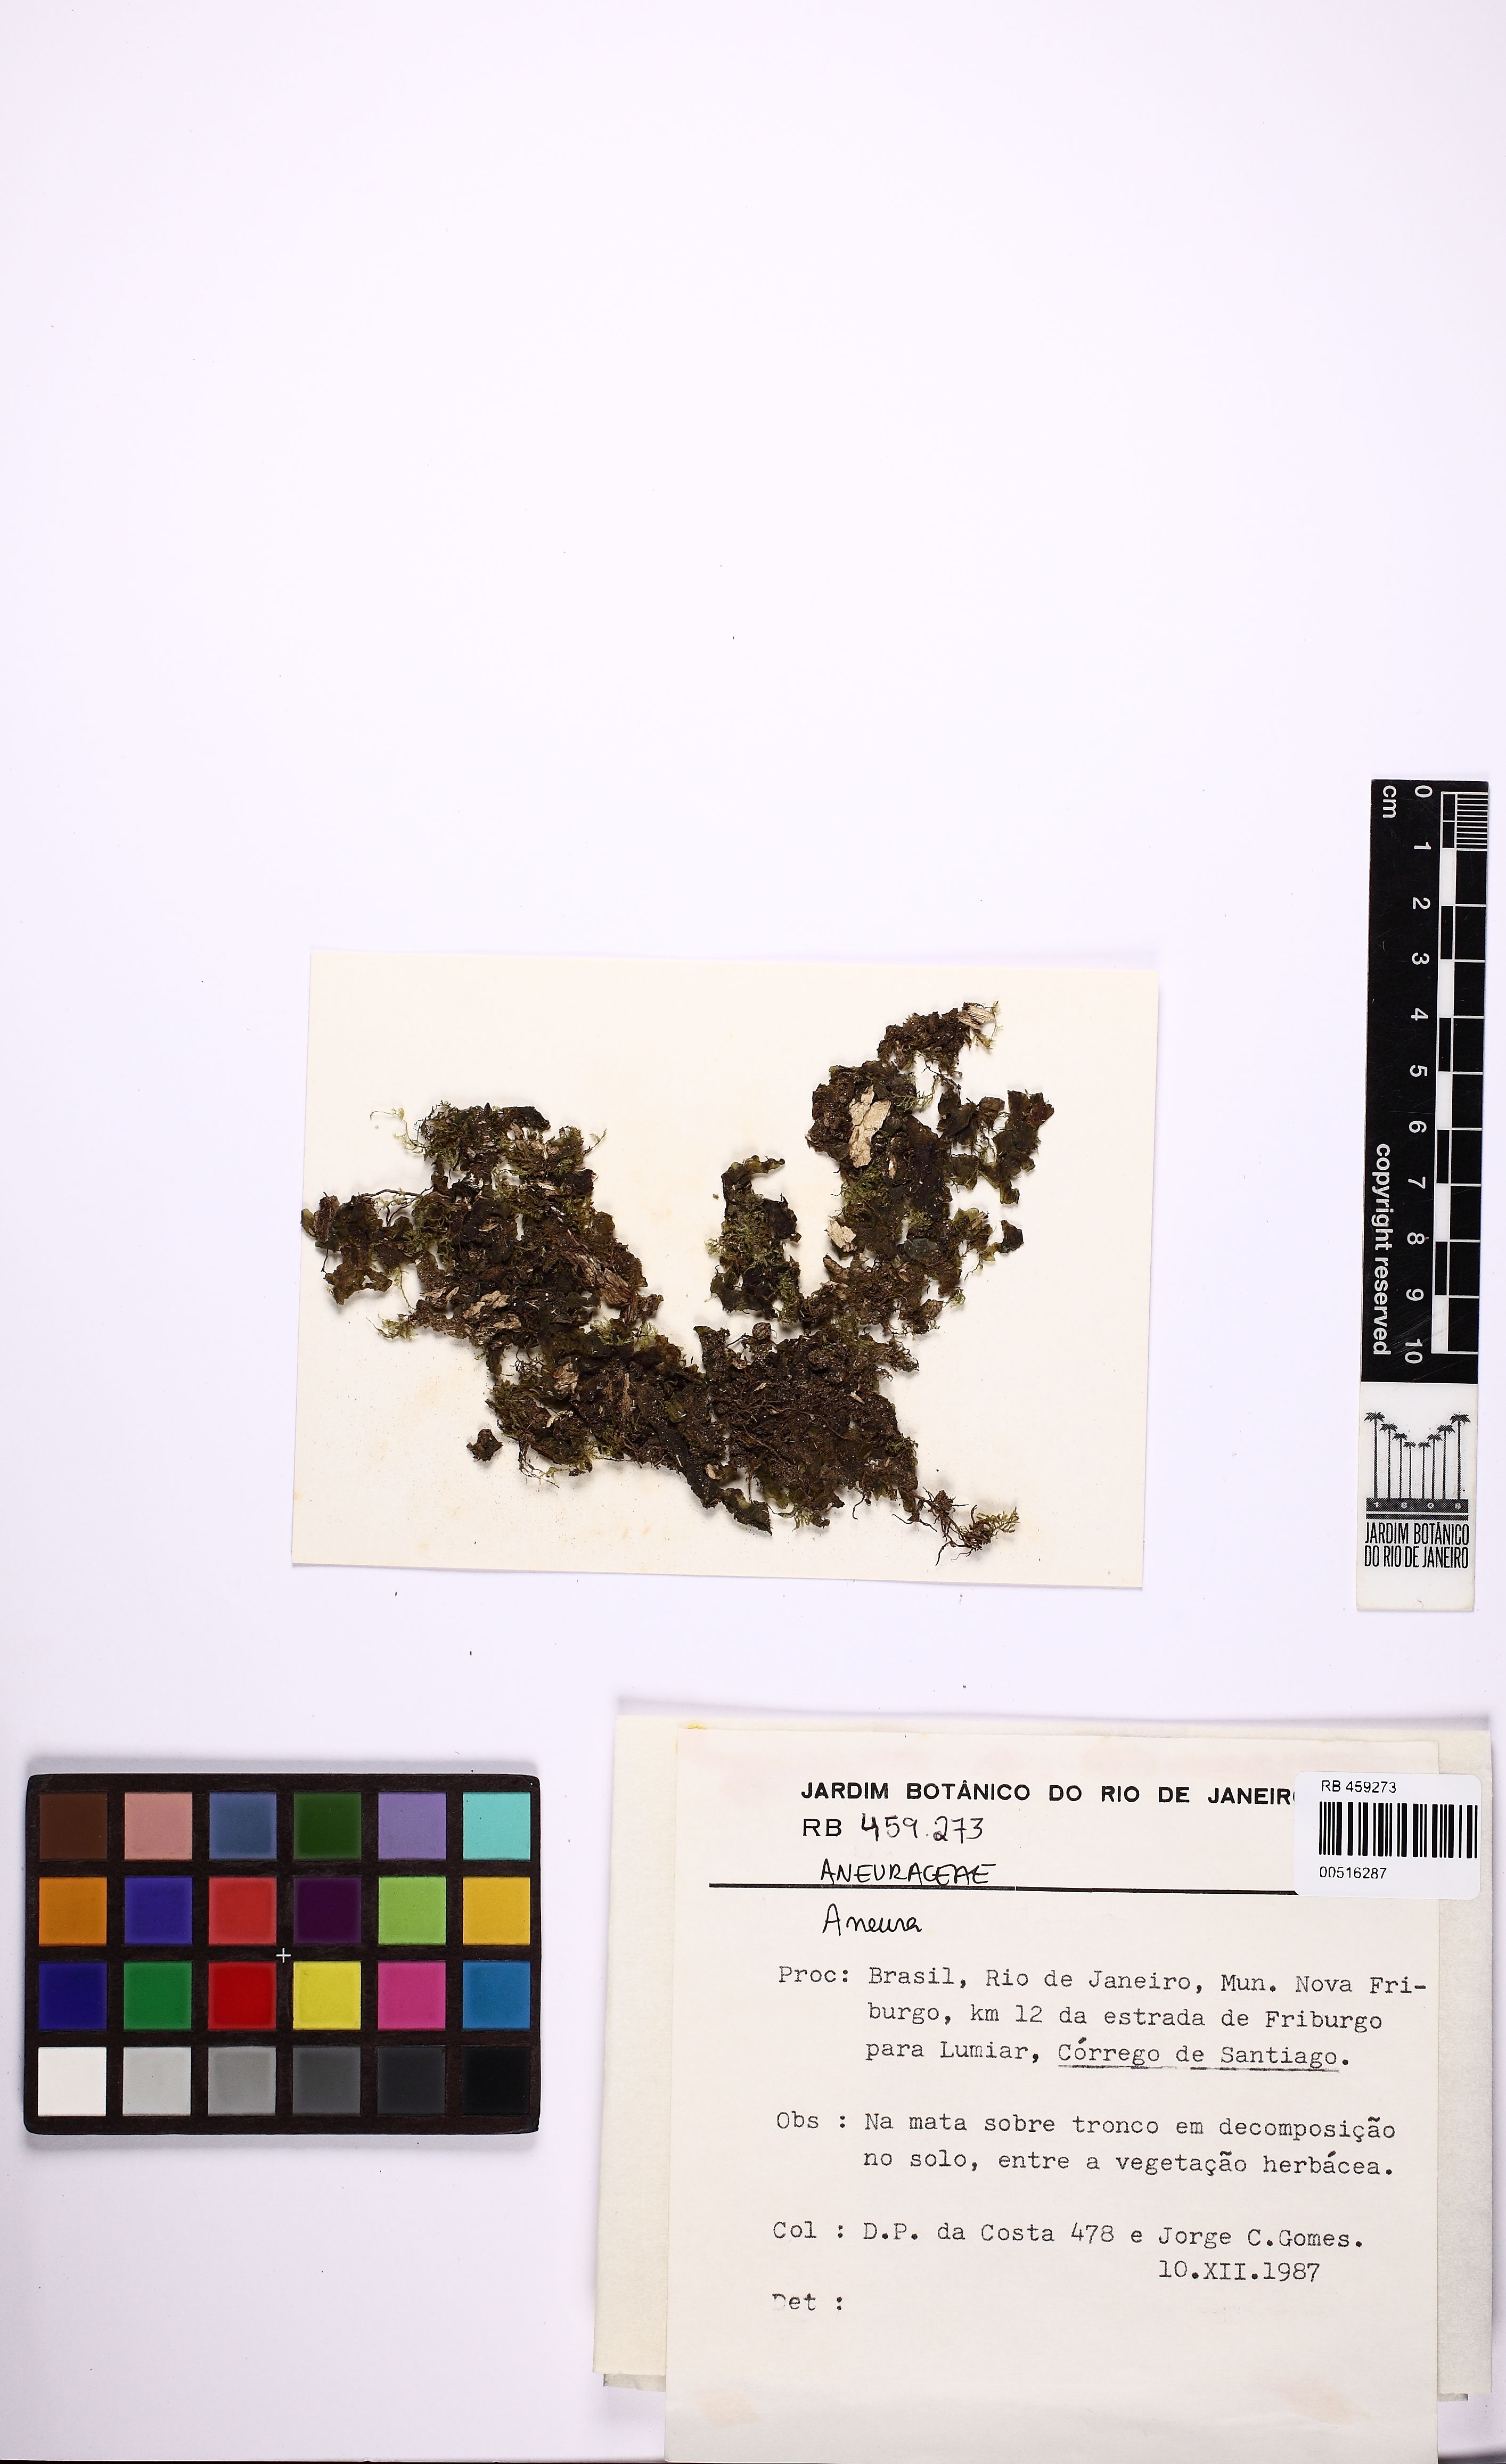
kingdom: Plantae
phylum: Marchantiophyta
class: Jungermanniopsida
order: Metzgeriales
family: Aneuraceae
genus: Aneura
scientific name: Aneura
